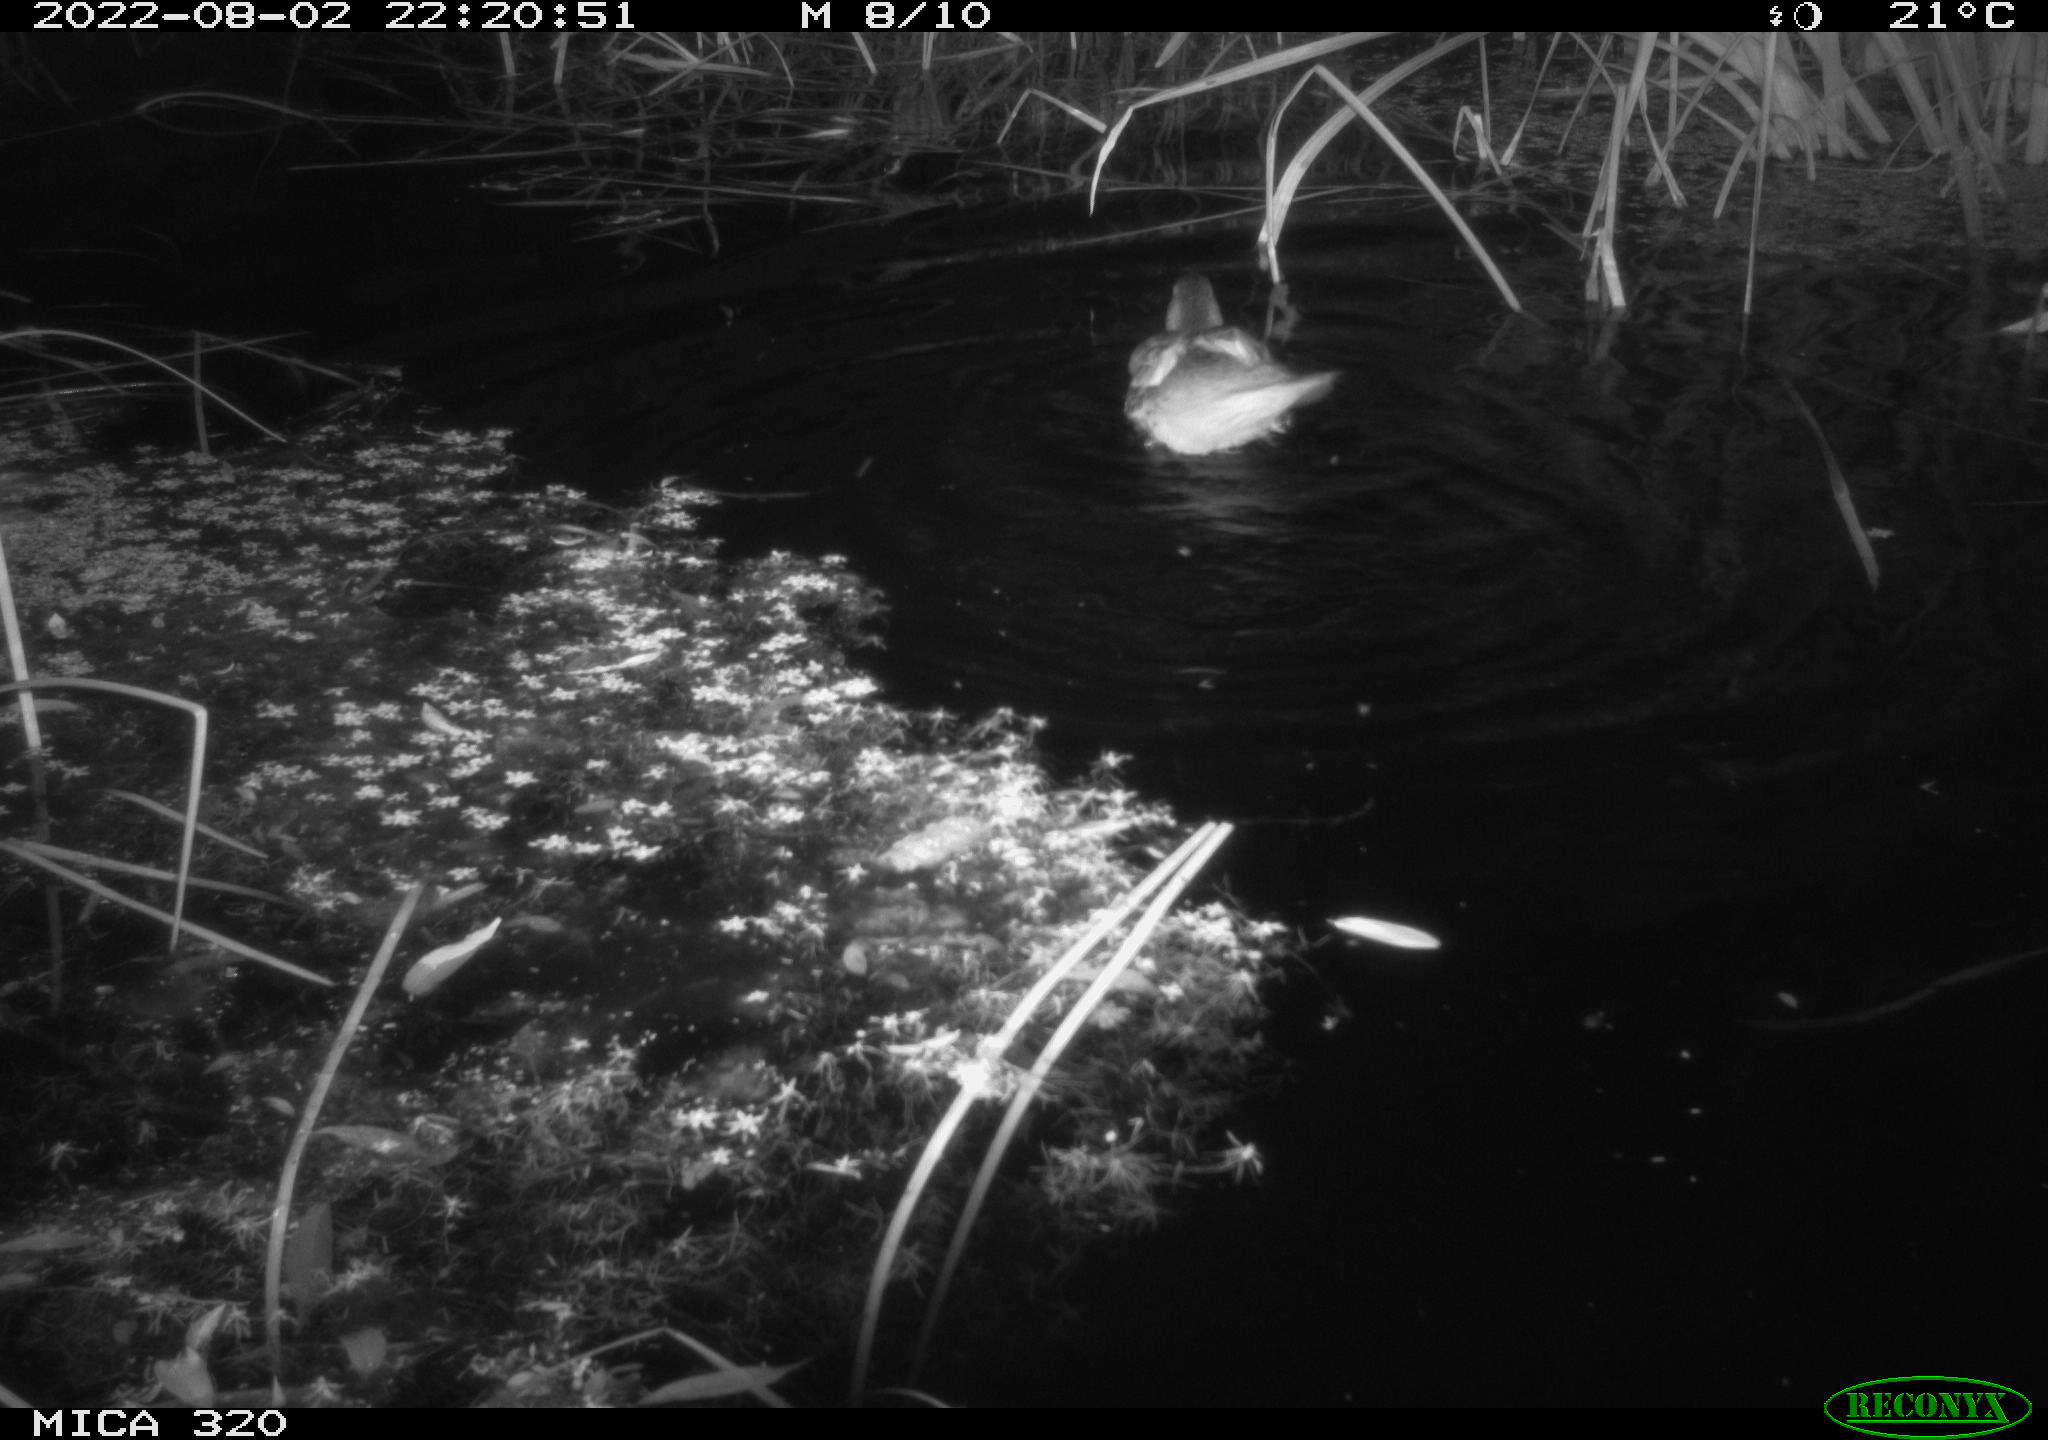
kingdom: Animalia
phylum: Chordata
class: Aves
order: Anseriformes
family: Anatidae
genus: Anas
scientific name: Anas platyrhynchos
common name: Mallard
